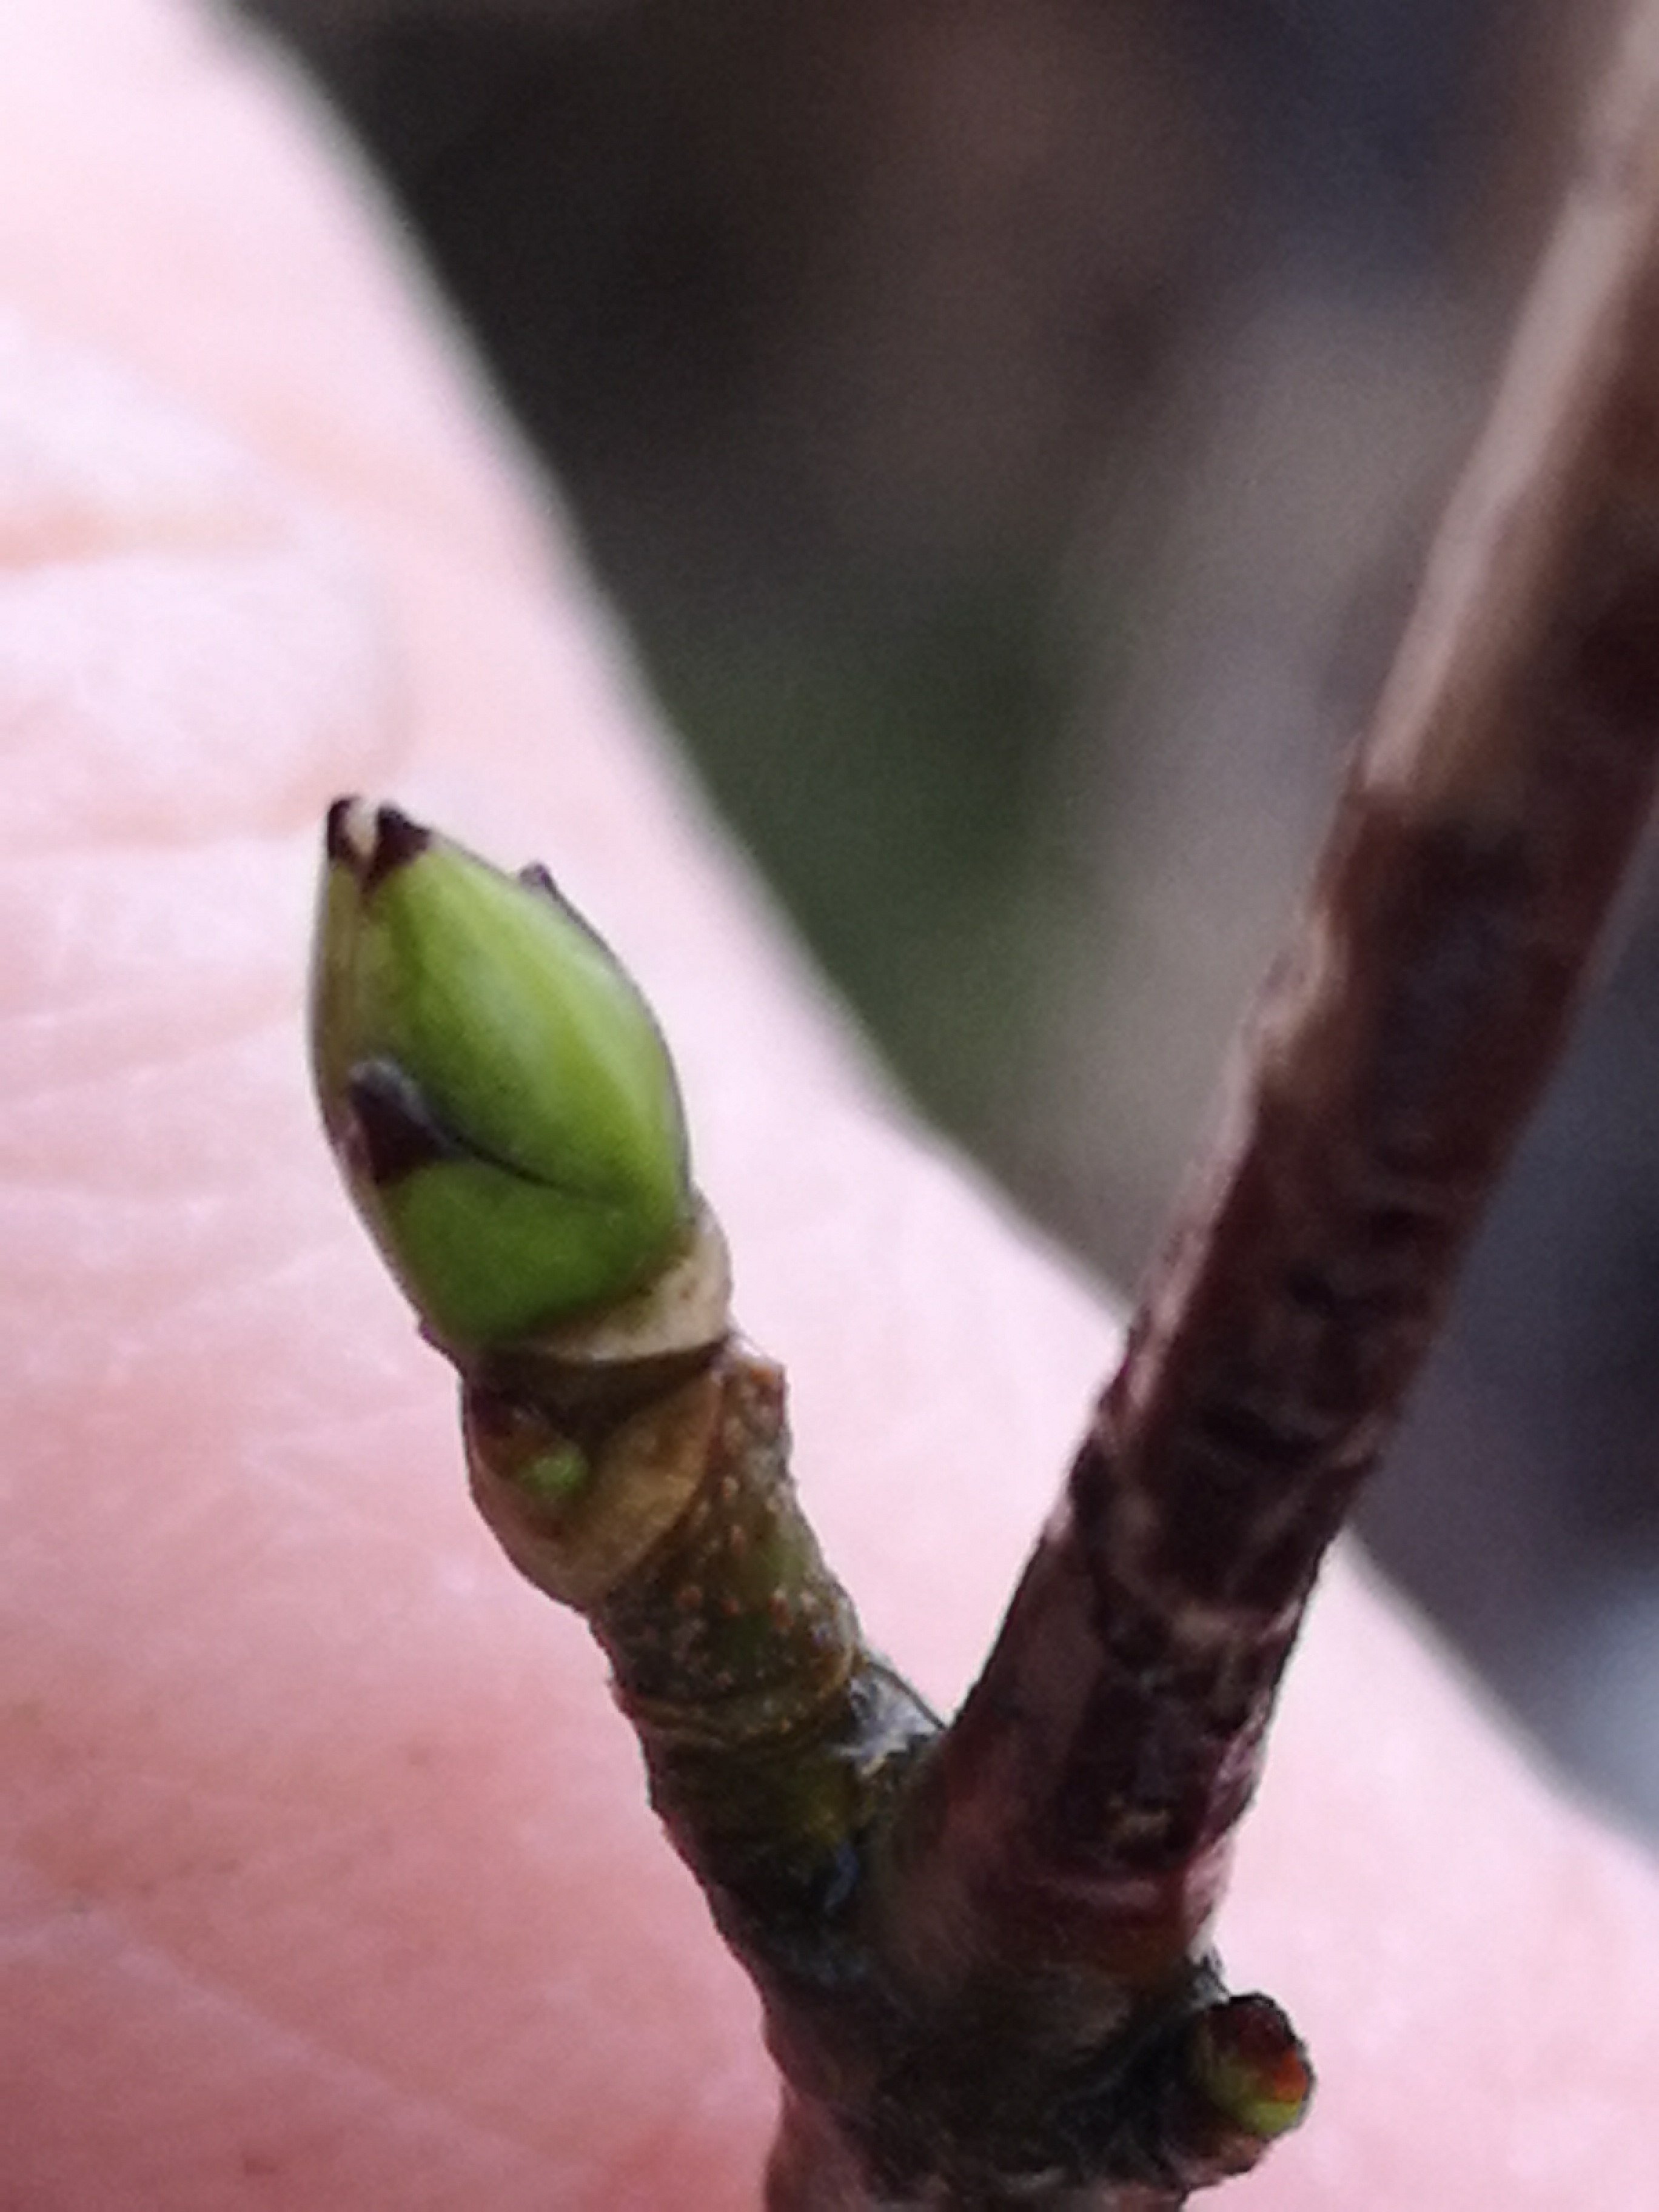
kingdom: Fungi
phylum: Basidiomycota
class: Agaricomycetes
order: Russulales
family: Peniophoraceae
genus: Peniophora
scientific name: Peniophora incarnata
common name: laksefarvet voksskind
